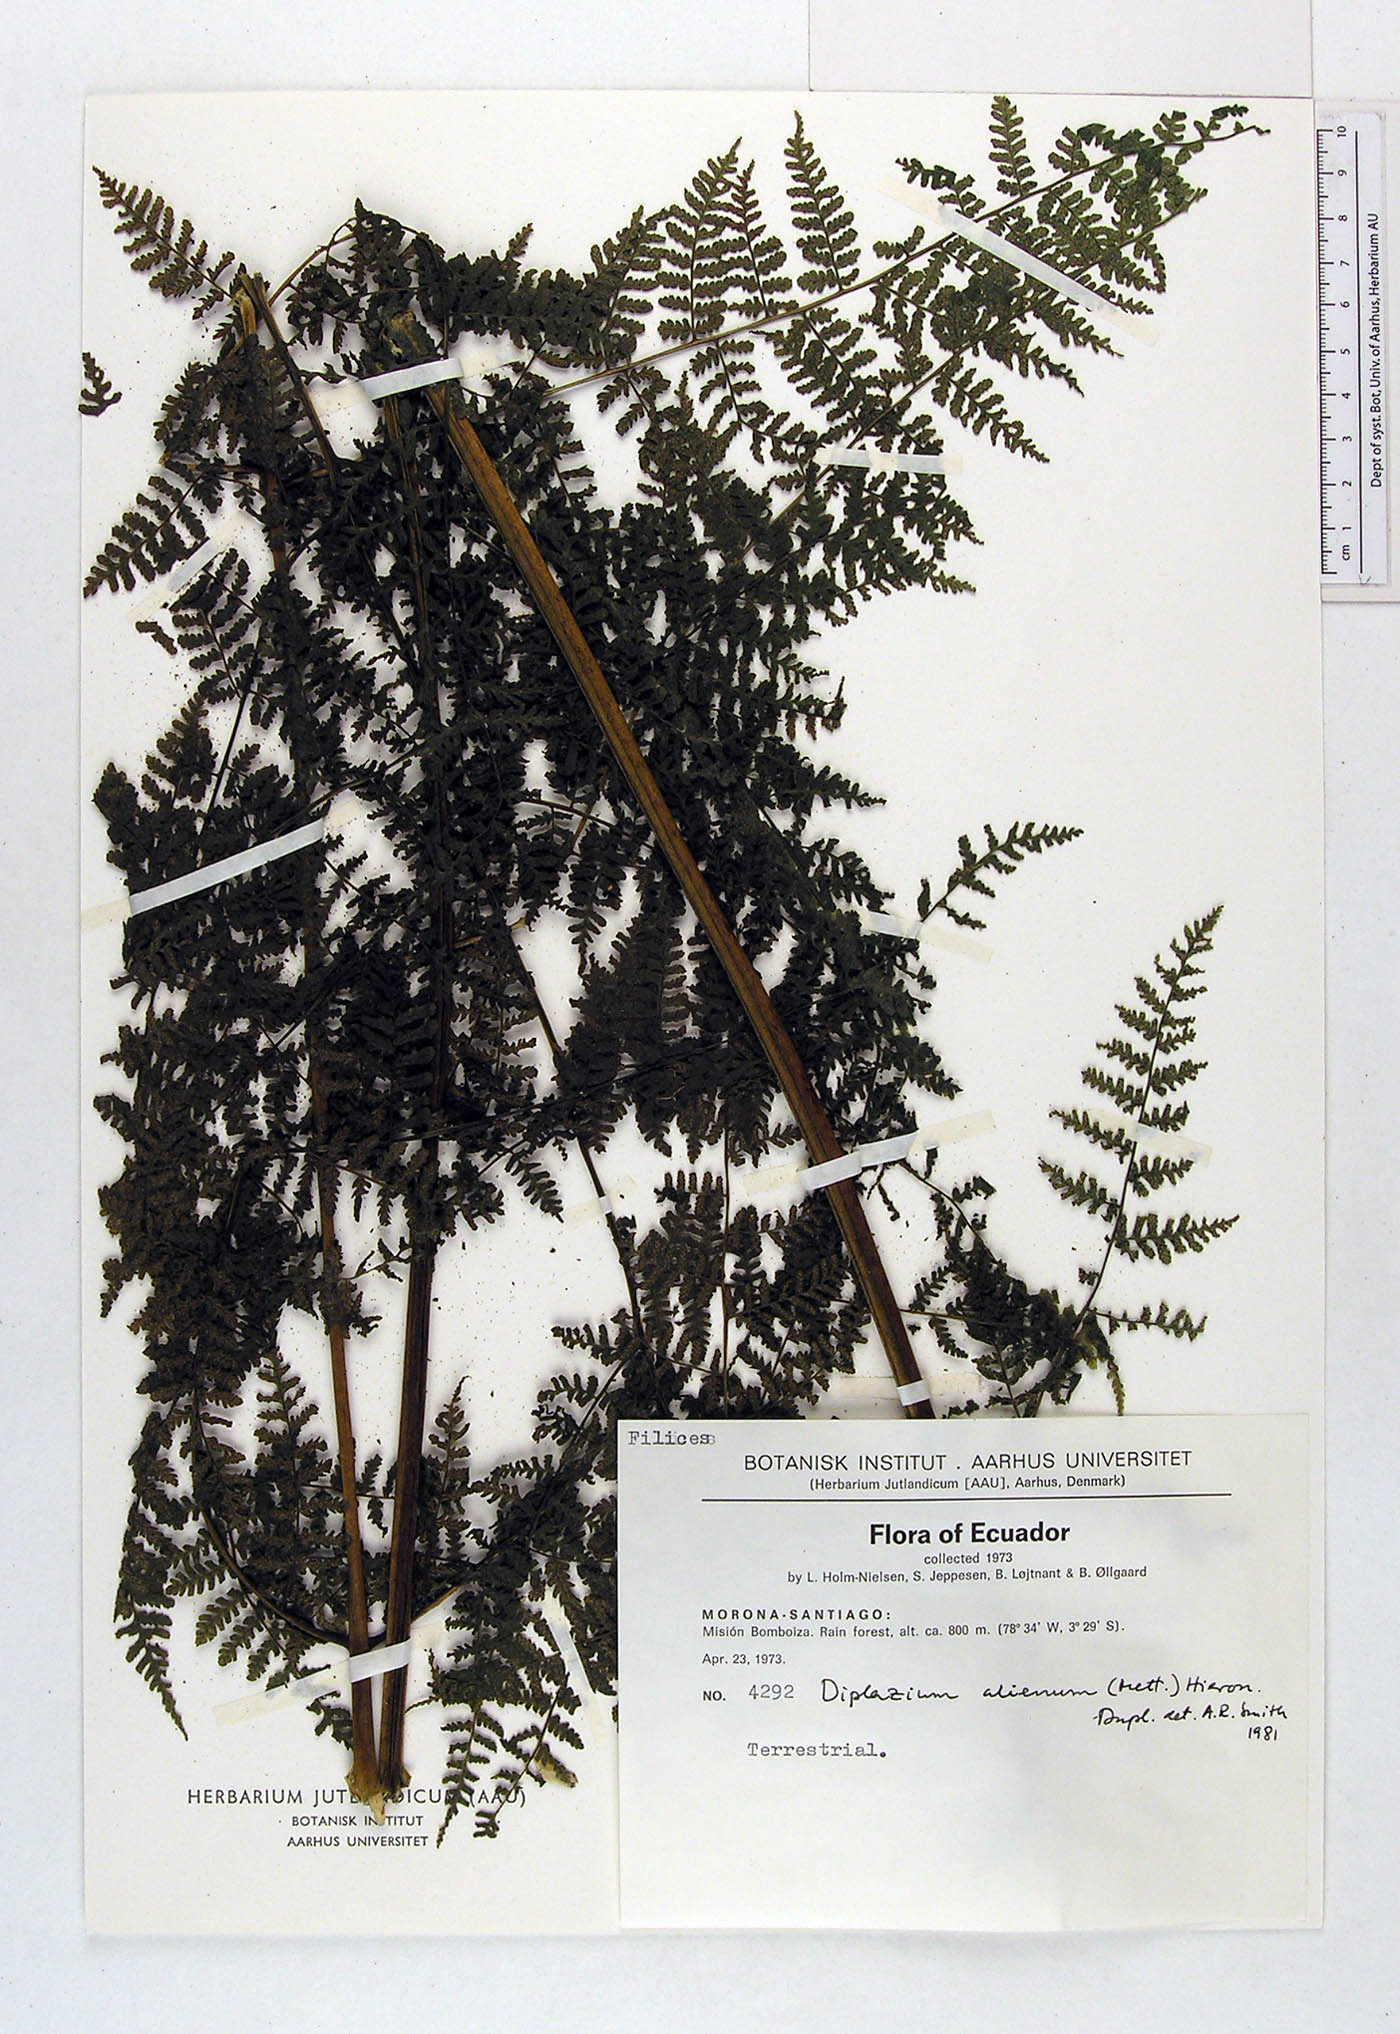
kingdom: Plantae
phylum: Tracheophyta
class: Polypodiopsida
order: Polypodiales
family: Athyriaceae
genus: Diplazium
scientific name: Diplazium alienum
